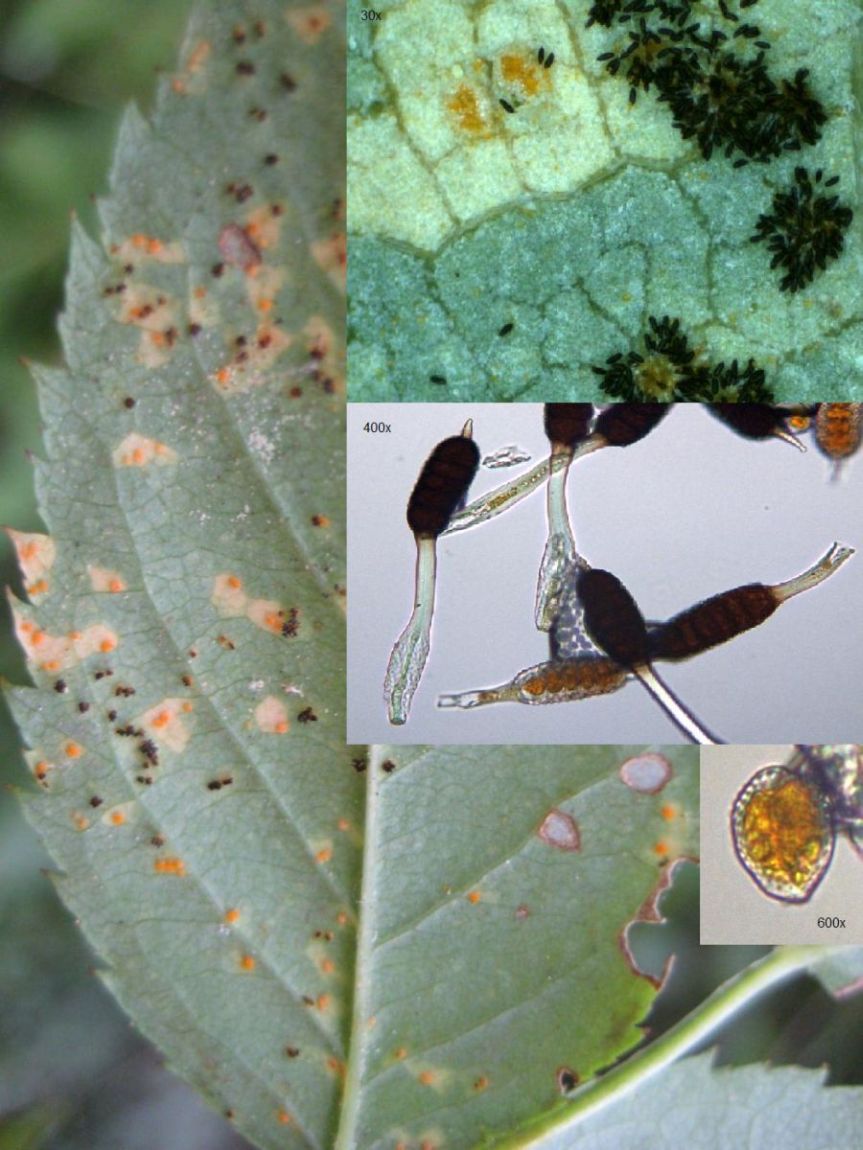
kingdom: Fungi
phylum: Basidiomycota
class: Pucciniomycetes
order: Pucciniales
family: Phragmidiaceae
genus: Phragmidium
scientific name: Phragmidium tuberculatum
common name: Rose rust
